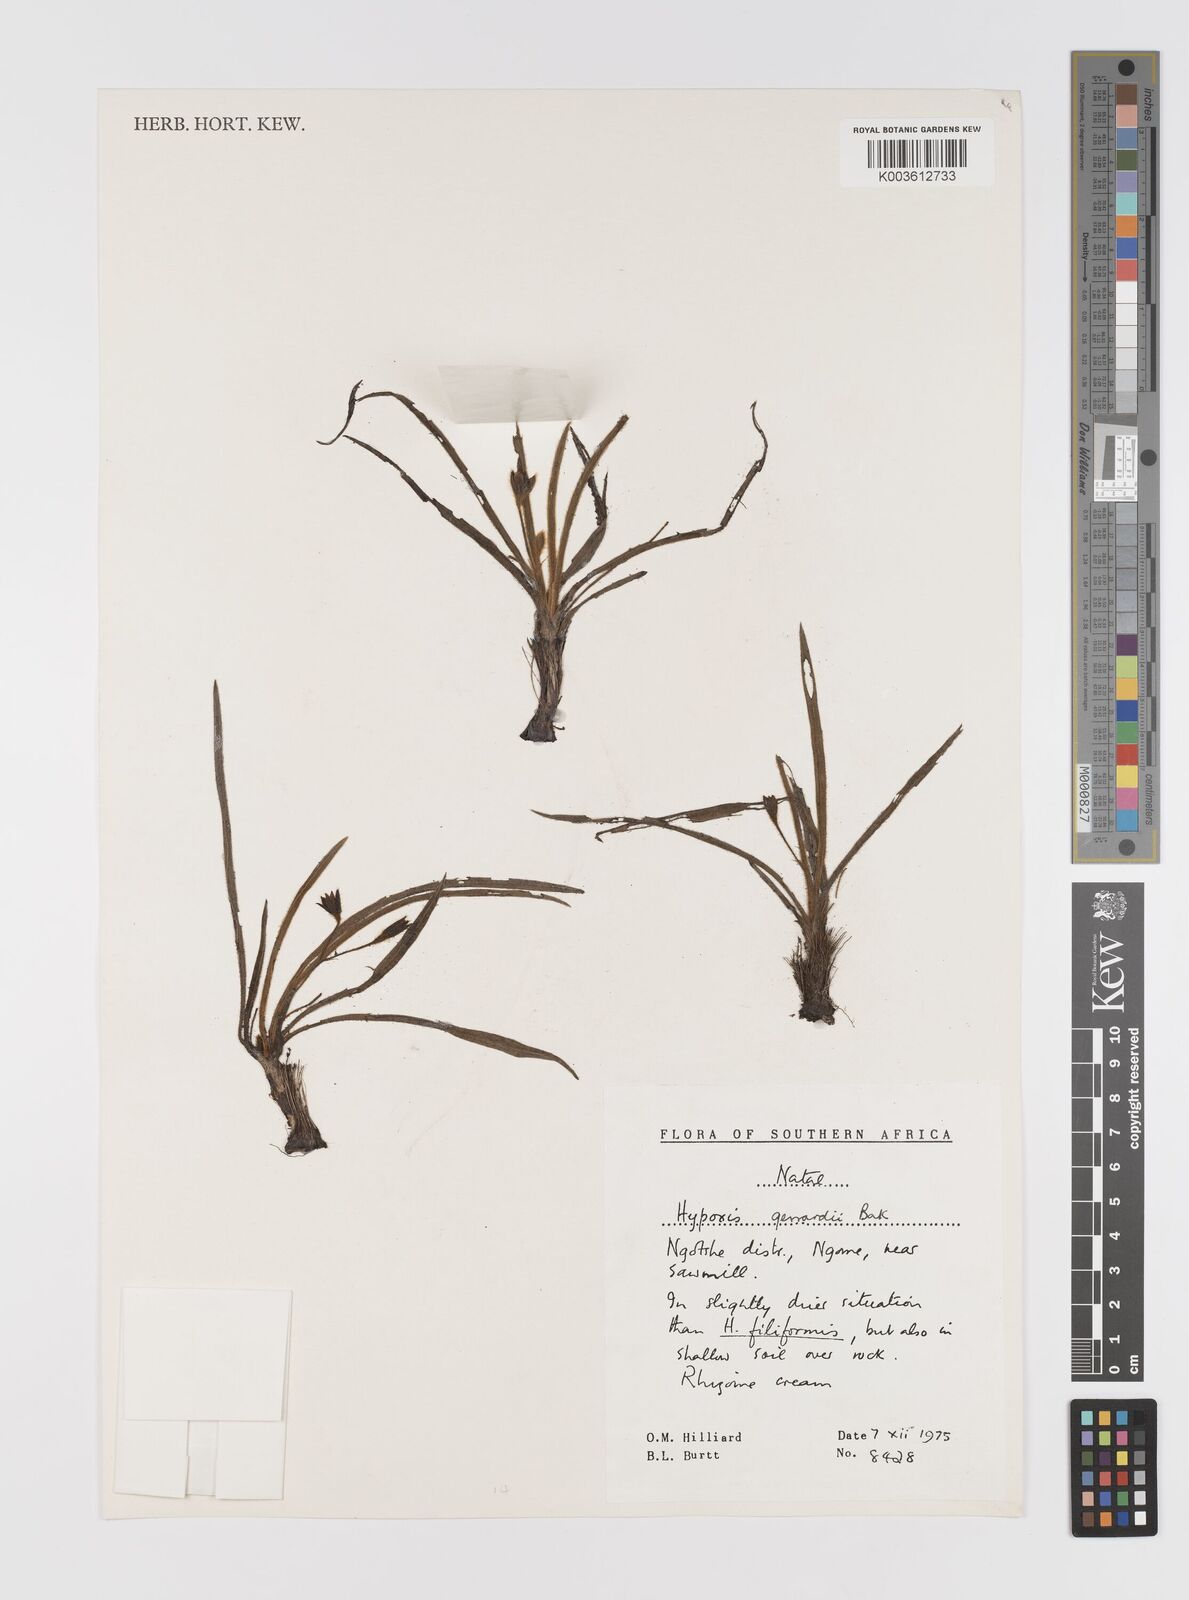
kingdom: Plantae
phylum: Tracheophyta
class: Liliopsida
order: Asparagales
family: Hypoxidaceae
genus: Hypoxis
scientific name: Hypoxis gerrardii
